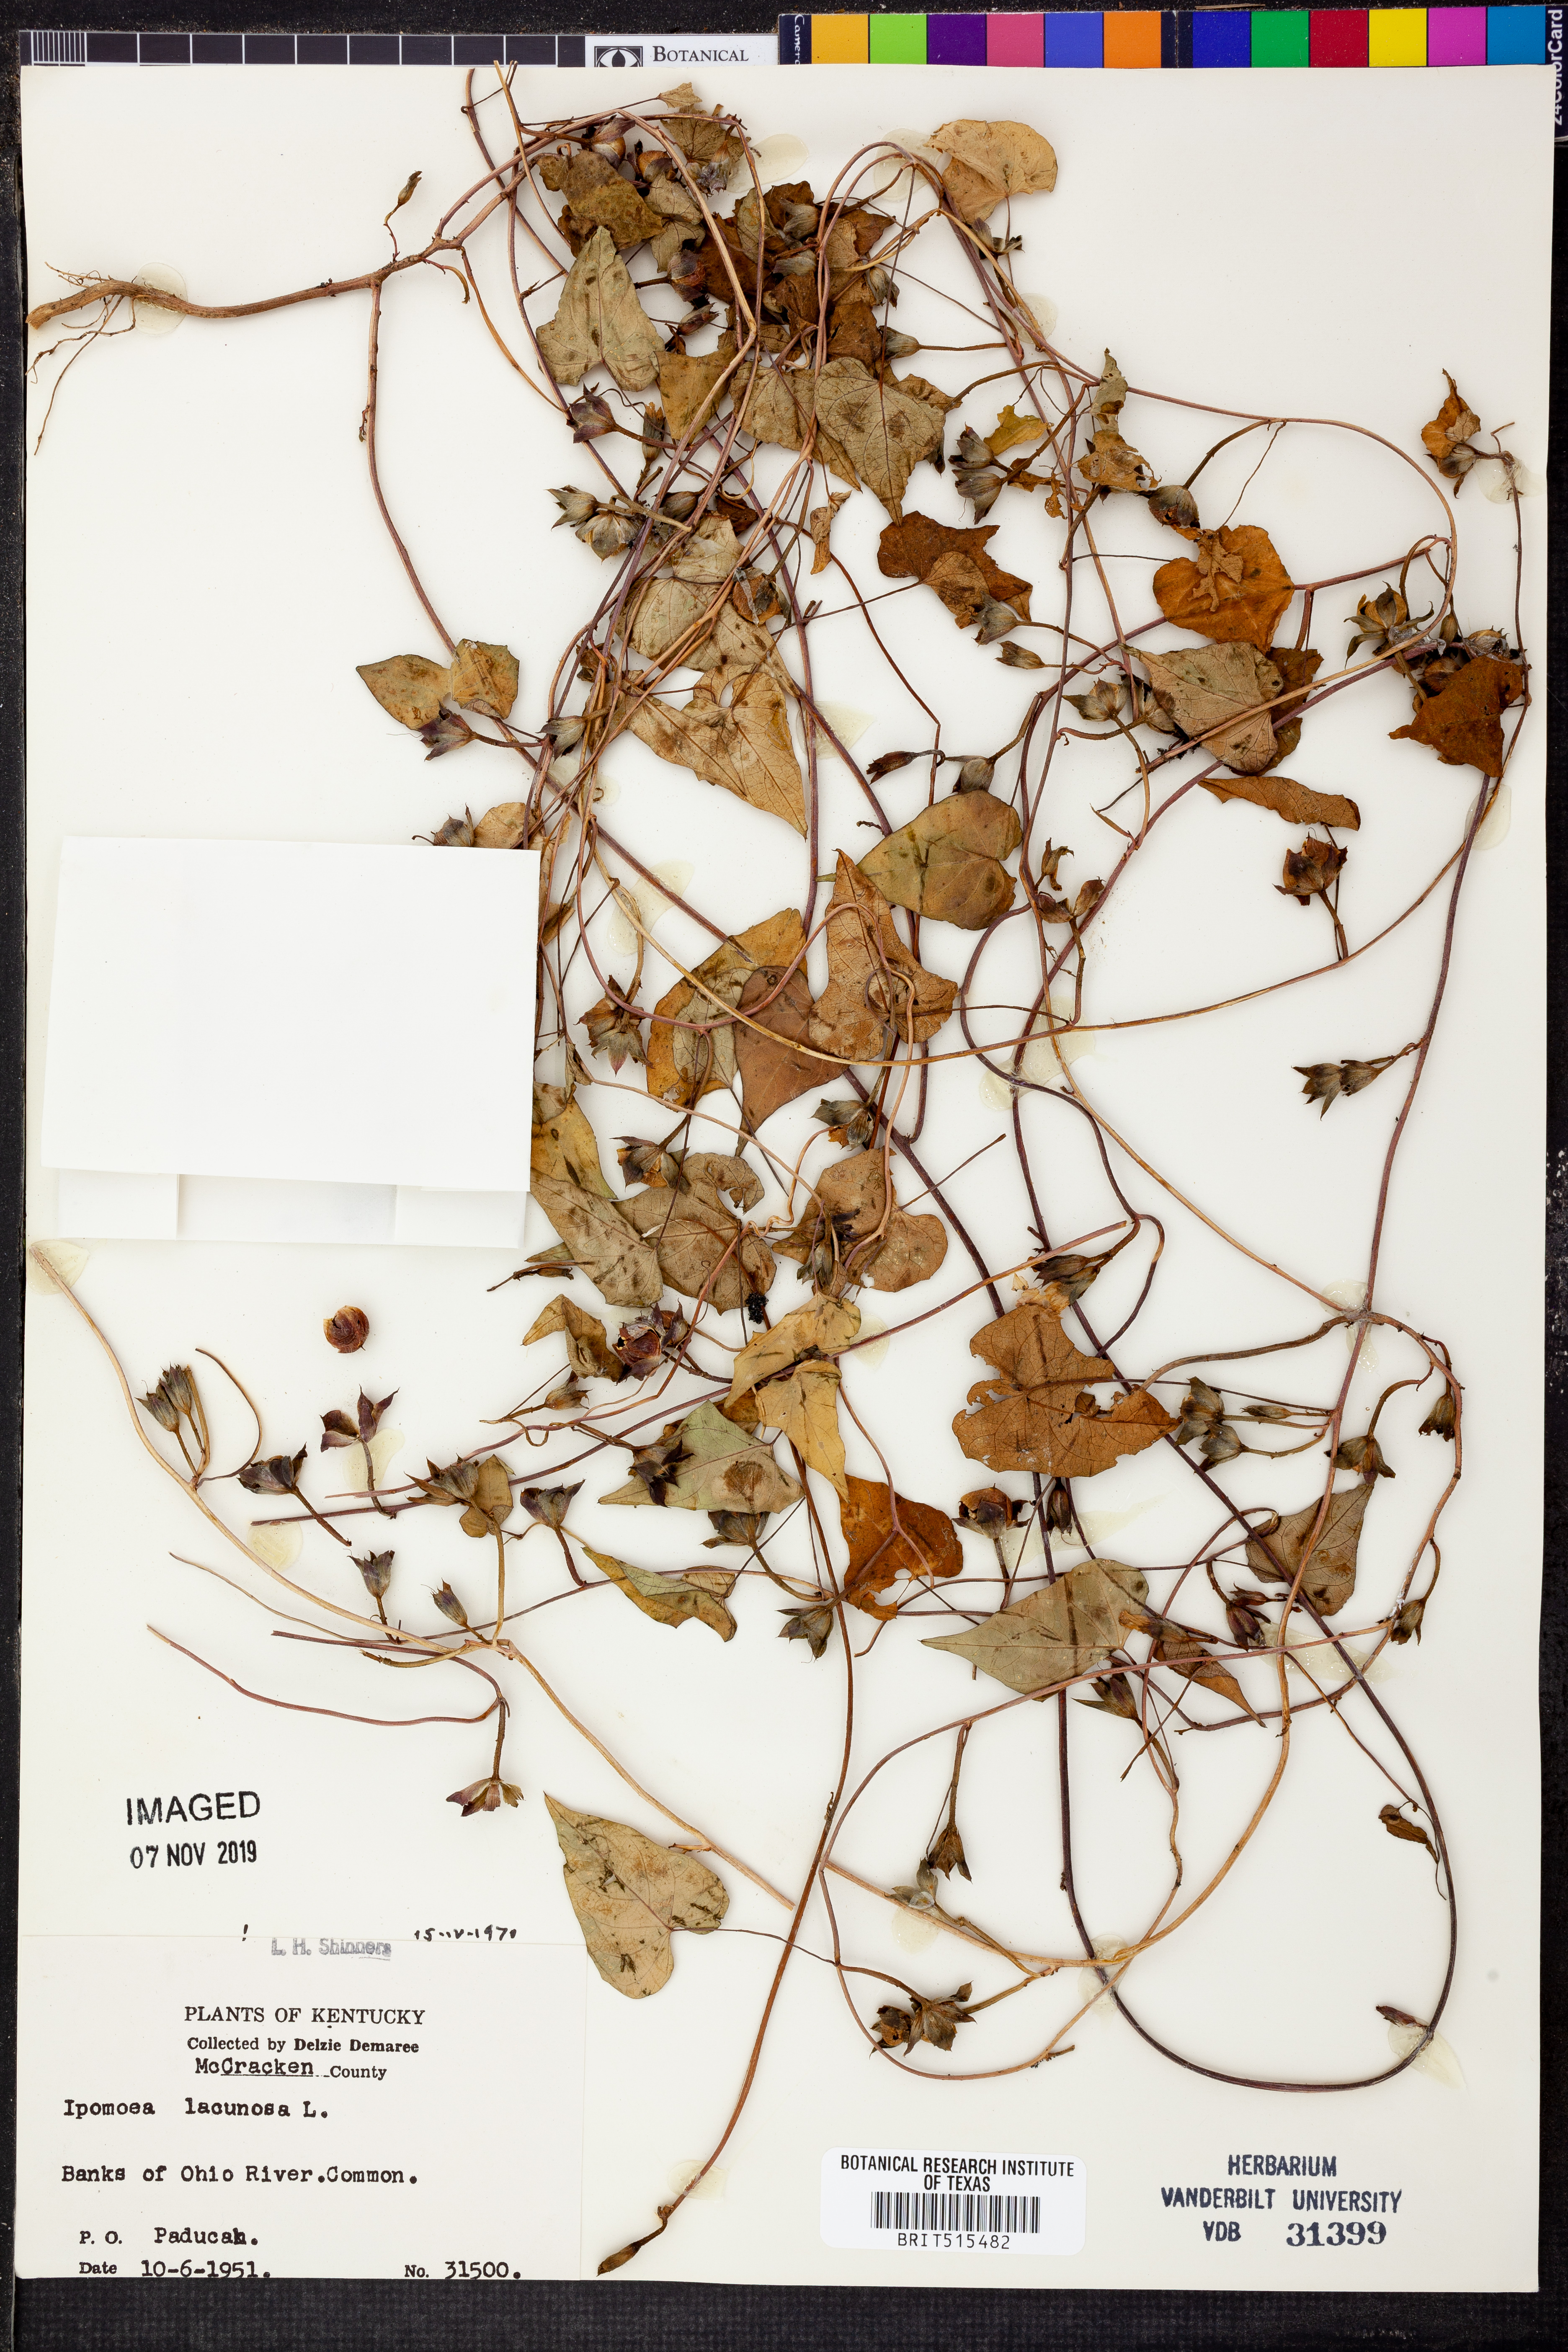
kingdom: Plantae
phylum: Tracheophyta
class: Magnoliopsida
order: Solanales
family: Convolvulaceae
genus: Ipomoea
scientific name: Ipomoea lacunosa
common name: White morning-glory
